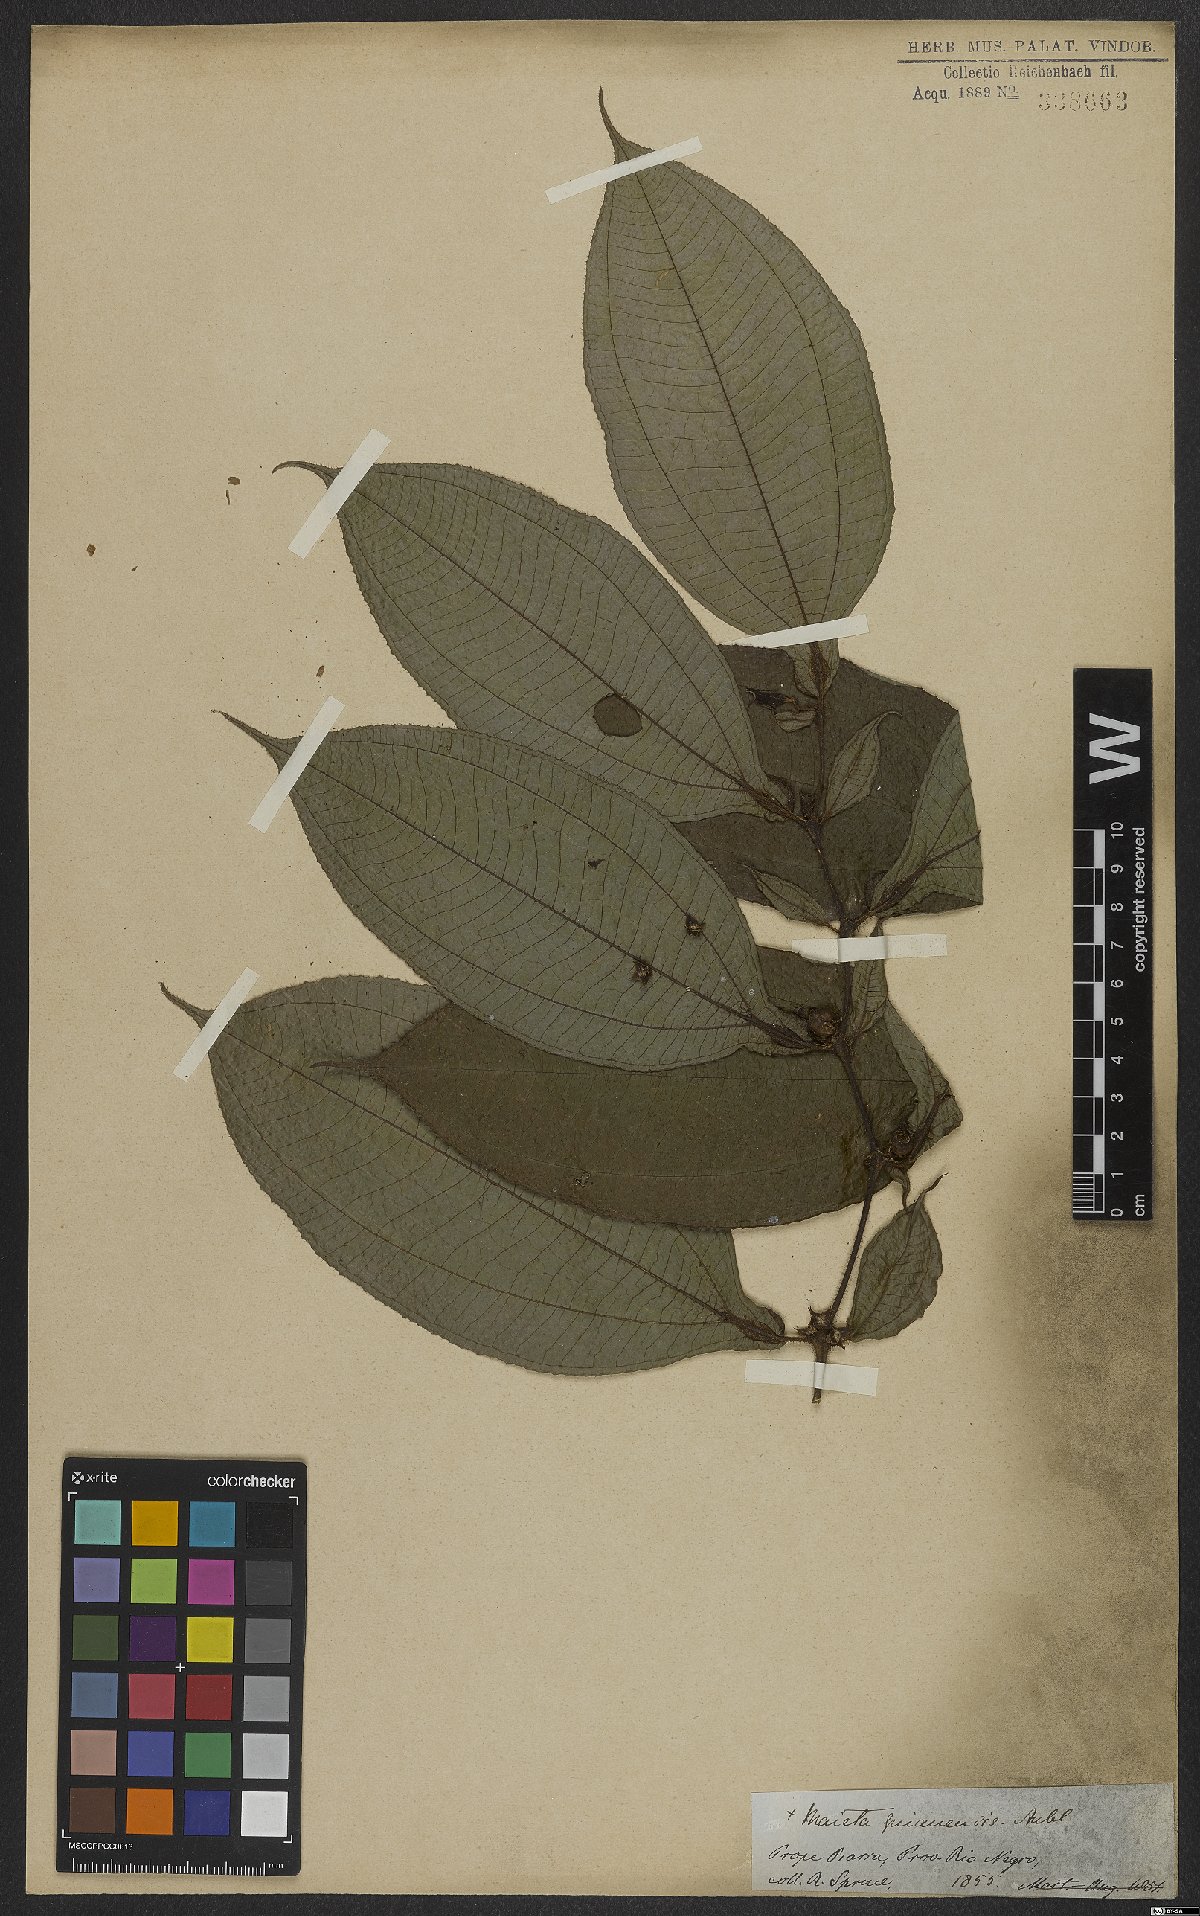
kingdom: Plantae
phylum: Tracheophyta
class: Magnoliopsida
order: Myrtales
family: Melastomataceae
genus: Miconia
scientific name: Miconia mayeta
